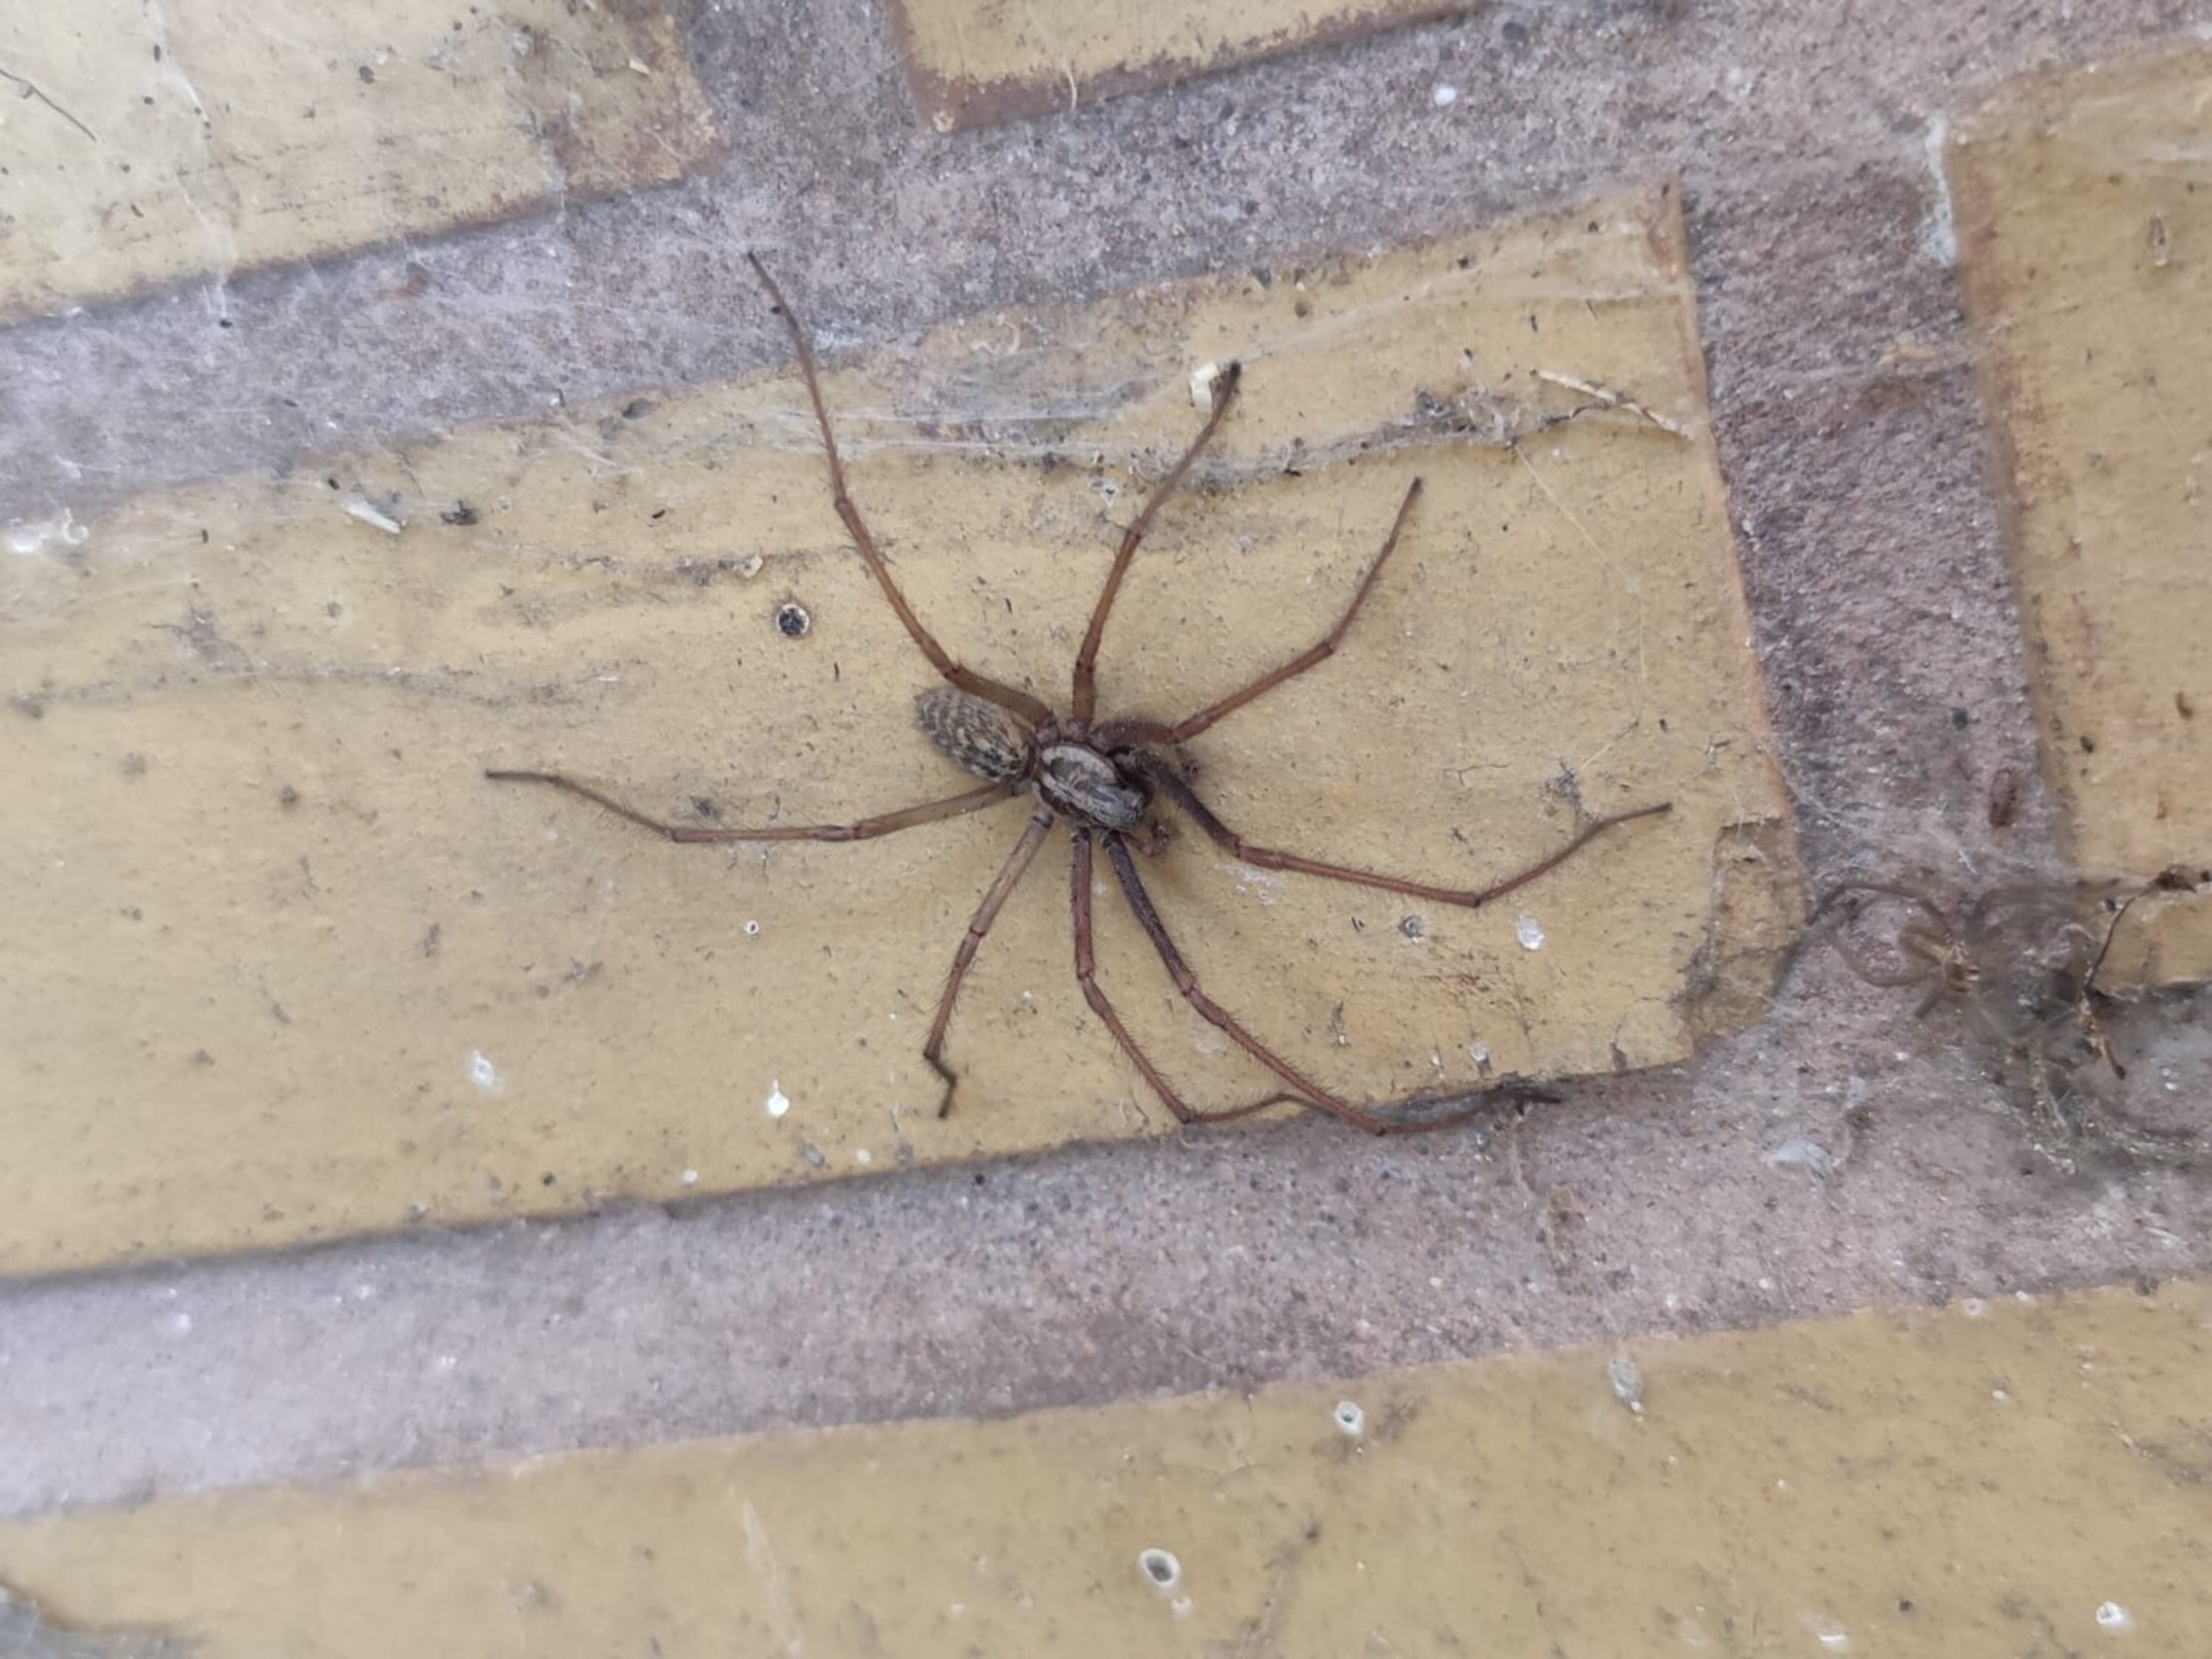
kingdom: Animalia
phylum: Arthropoda
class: Arachnida
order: Araneae
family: Agelenidae
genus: Eratigena
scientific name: Eratigena atrica
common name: Stor husedderkop
